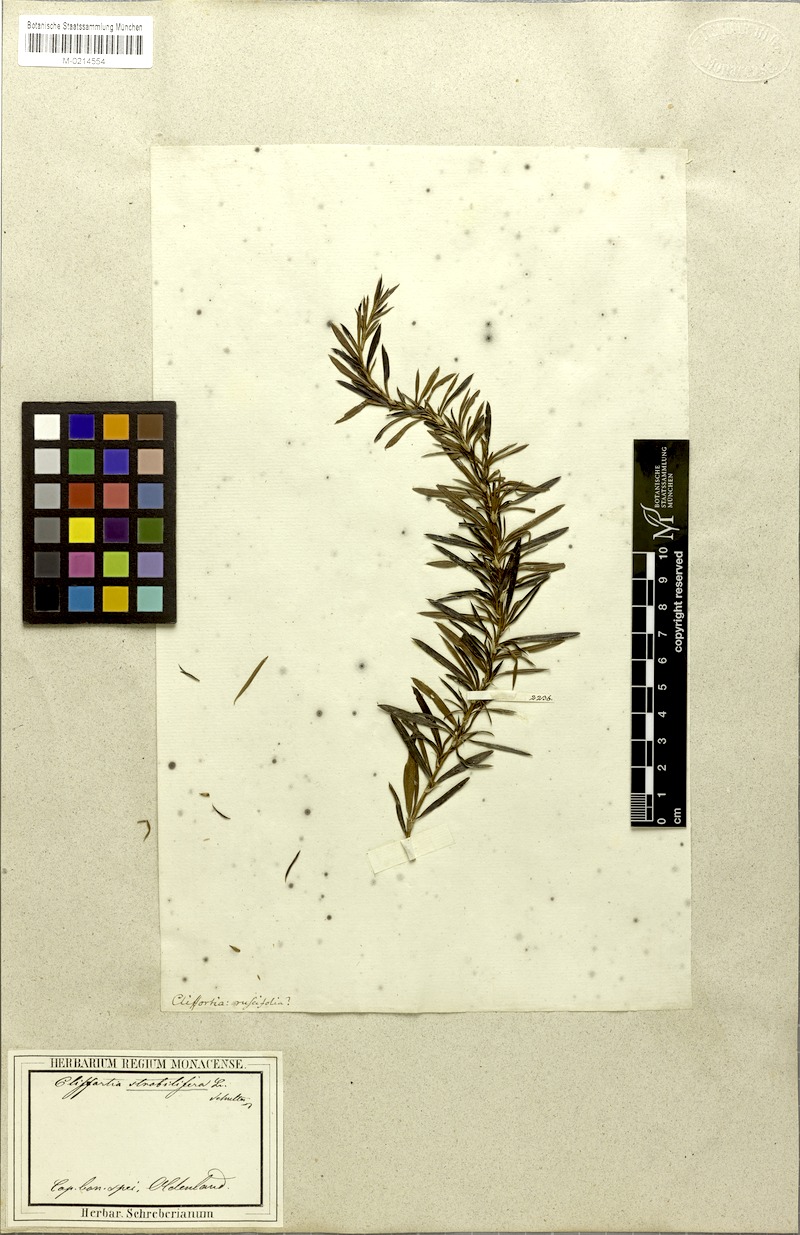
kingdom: Plantae
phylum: Tracheophyta
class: Magnoliopsida
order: Rosales
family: Rosaceae
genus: Cliffortia
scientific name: Cliffortia strobilifera
